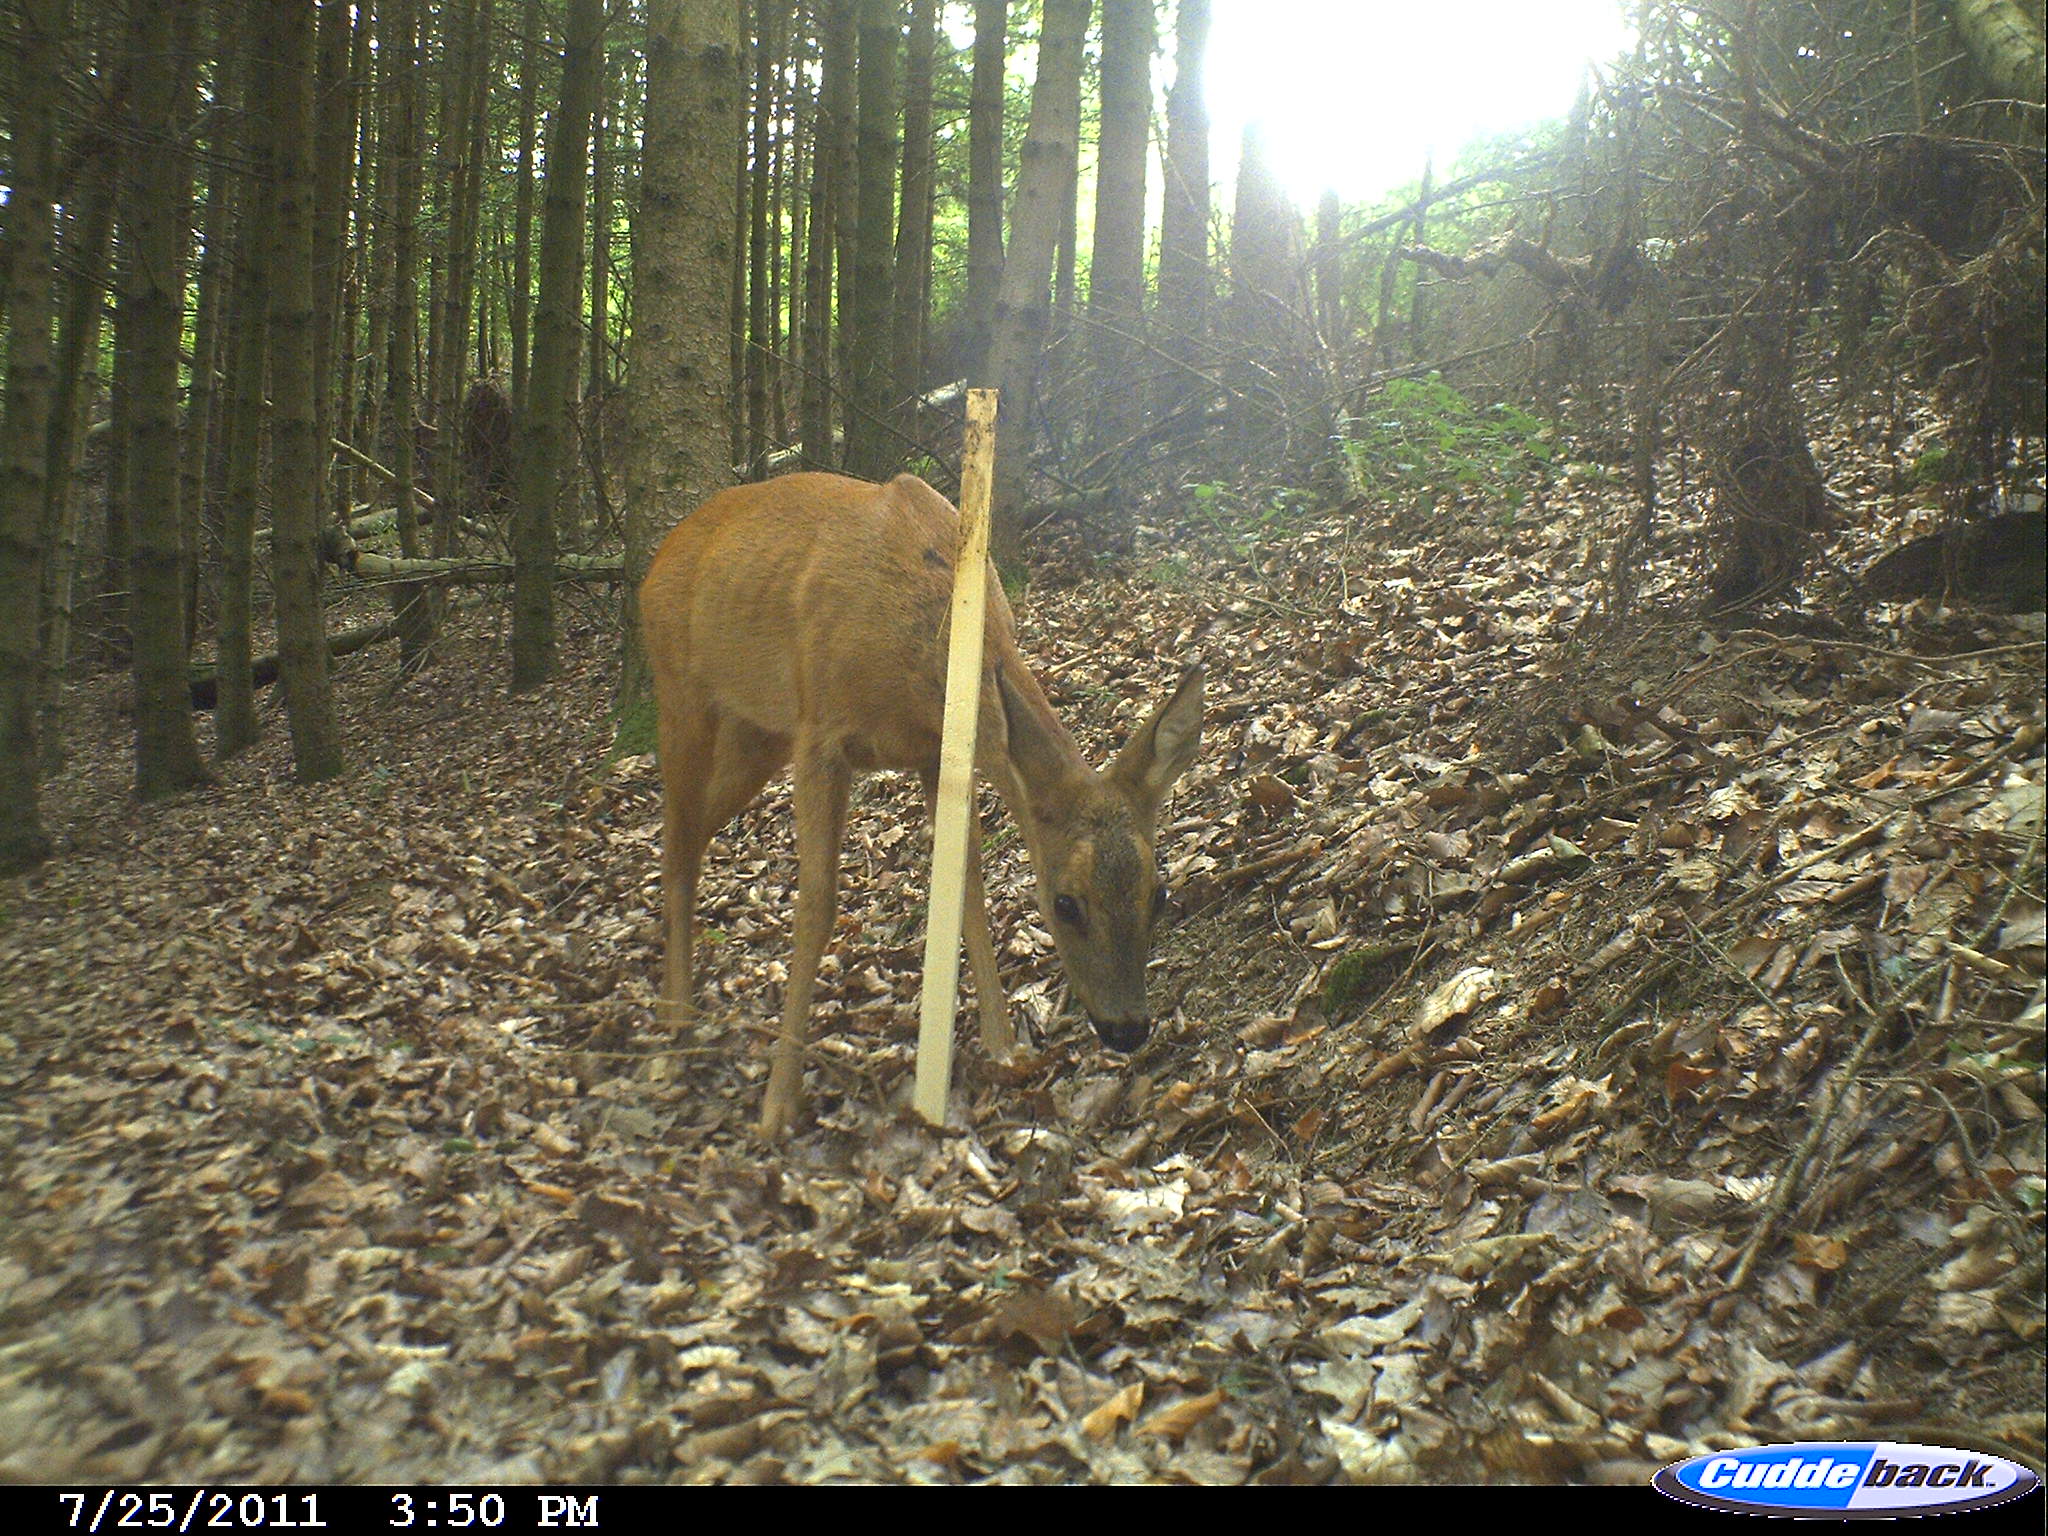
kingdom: Animalia
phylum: Chordata
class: Mammalia
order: Artiodactyla
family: Cervidae
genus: Capreolus
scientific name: Capreolus capreolus
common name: Western roe deer
